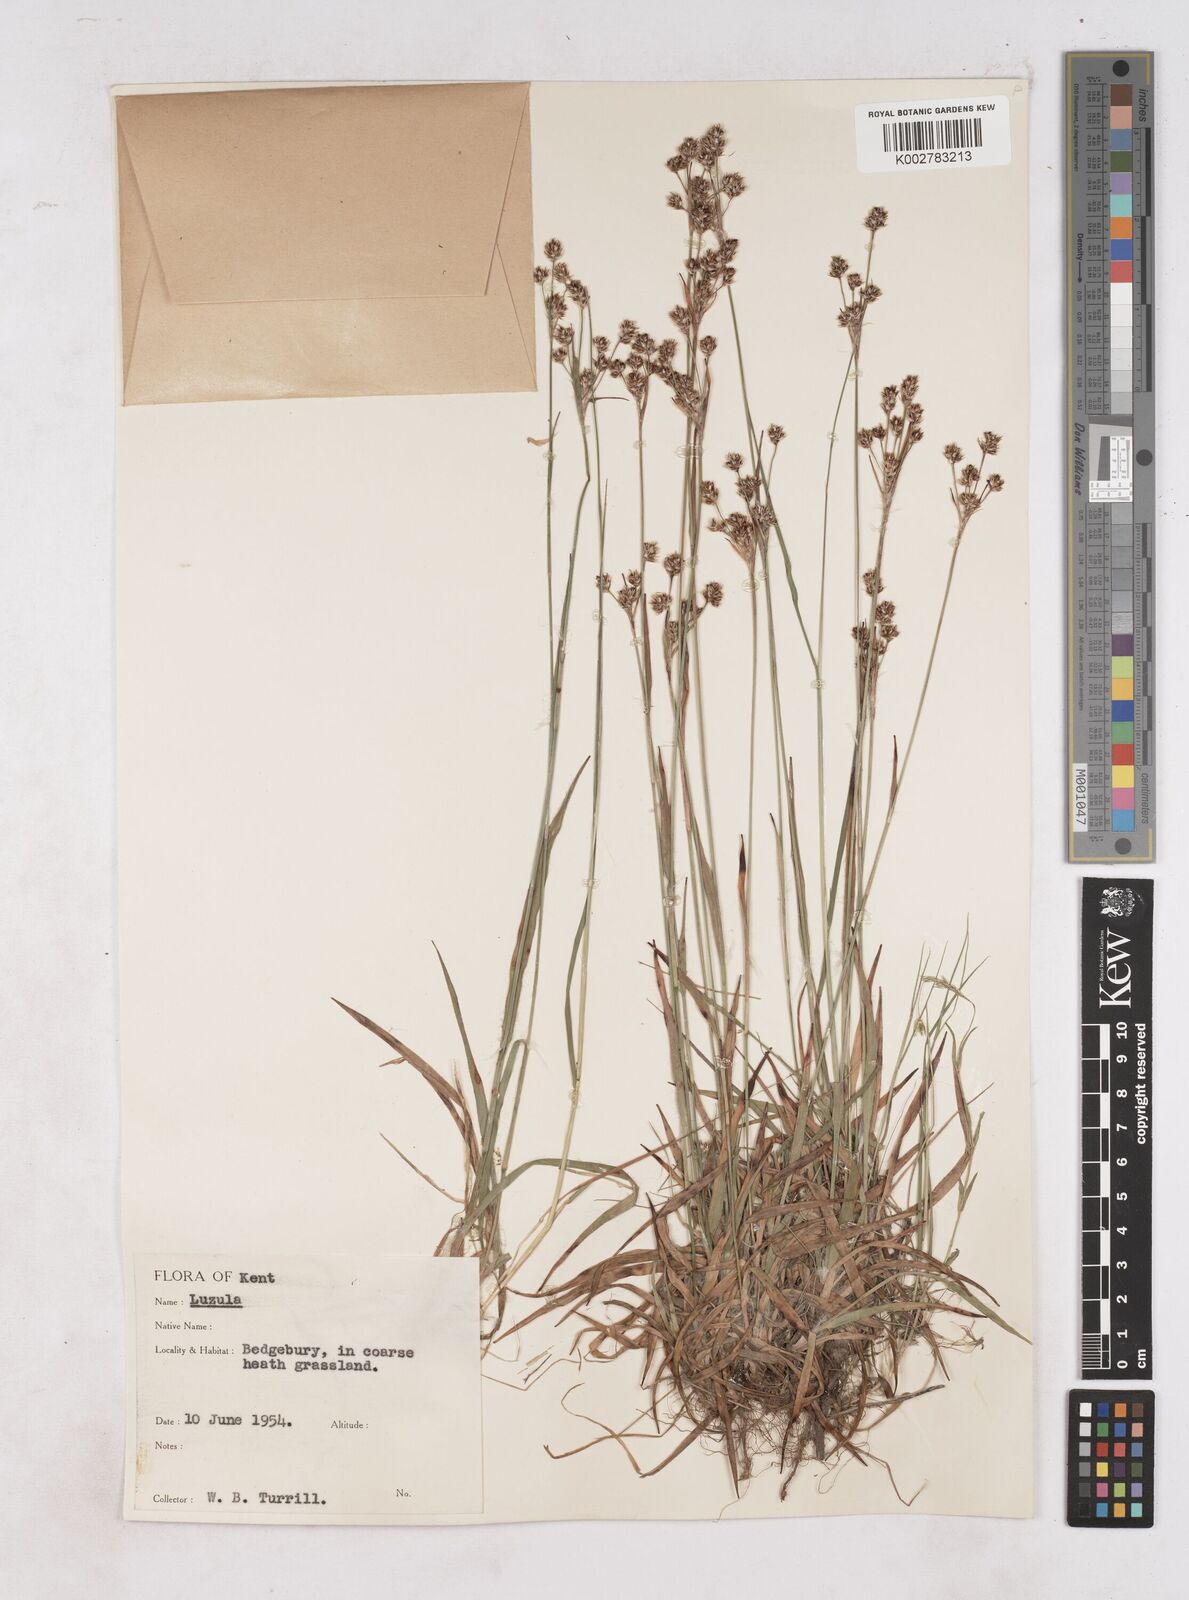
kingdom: Plantae
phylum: Tracheophyta
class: Liliopsida
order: Poales
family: Juncaceae
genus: Luzula
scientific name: Luzula multiflora
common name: Heath wood-rush
